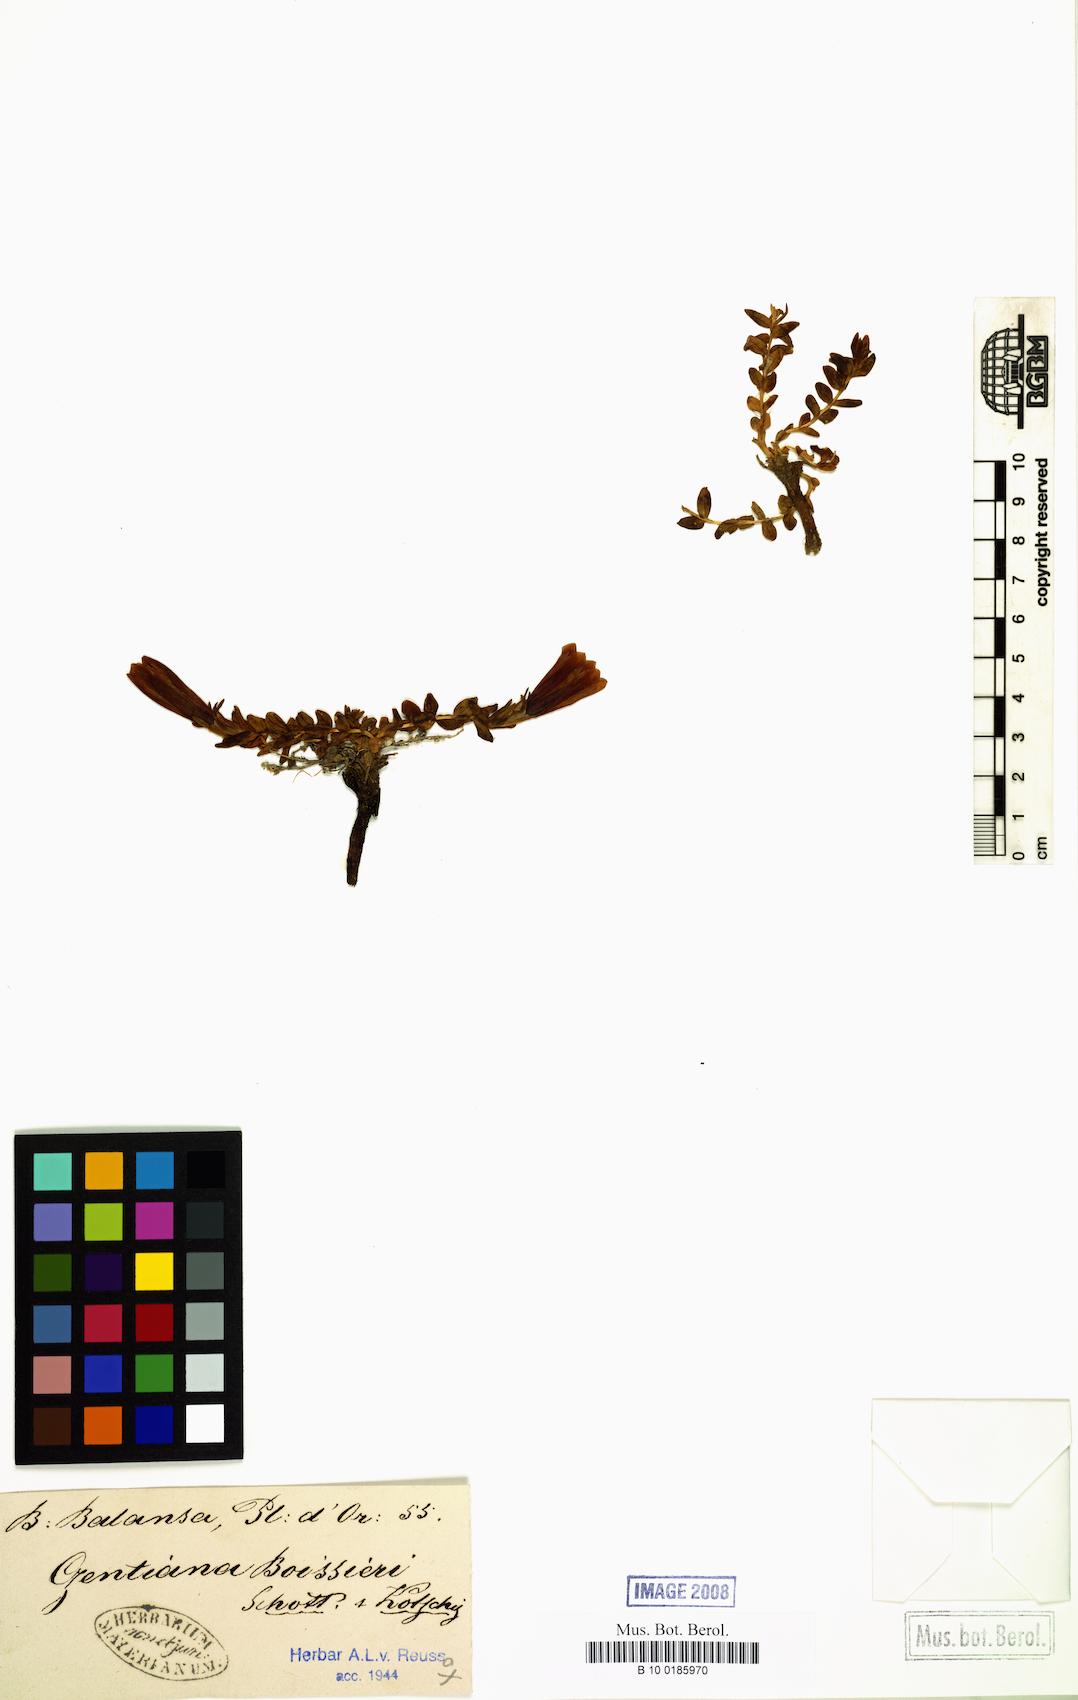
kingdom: Plantae
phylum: Tracheophyta
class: Magnoliopsida
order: Gentianales
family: Gentianaceae
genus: Gentiana
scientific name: Gentiana boissieri
